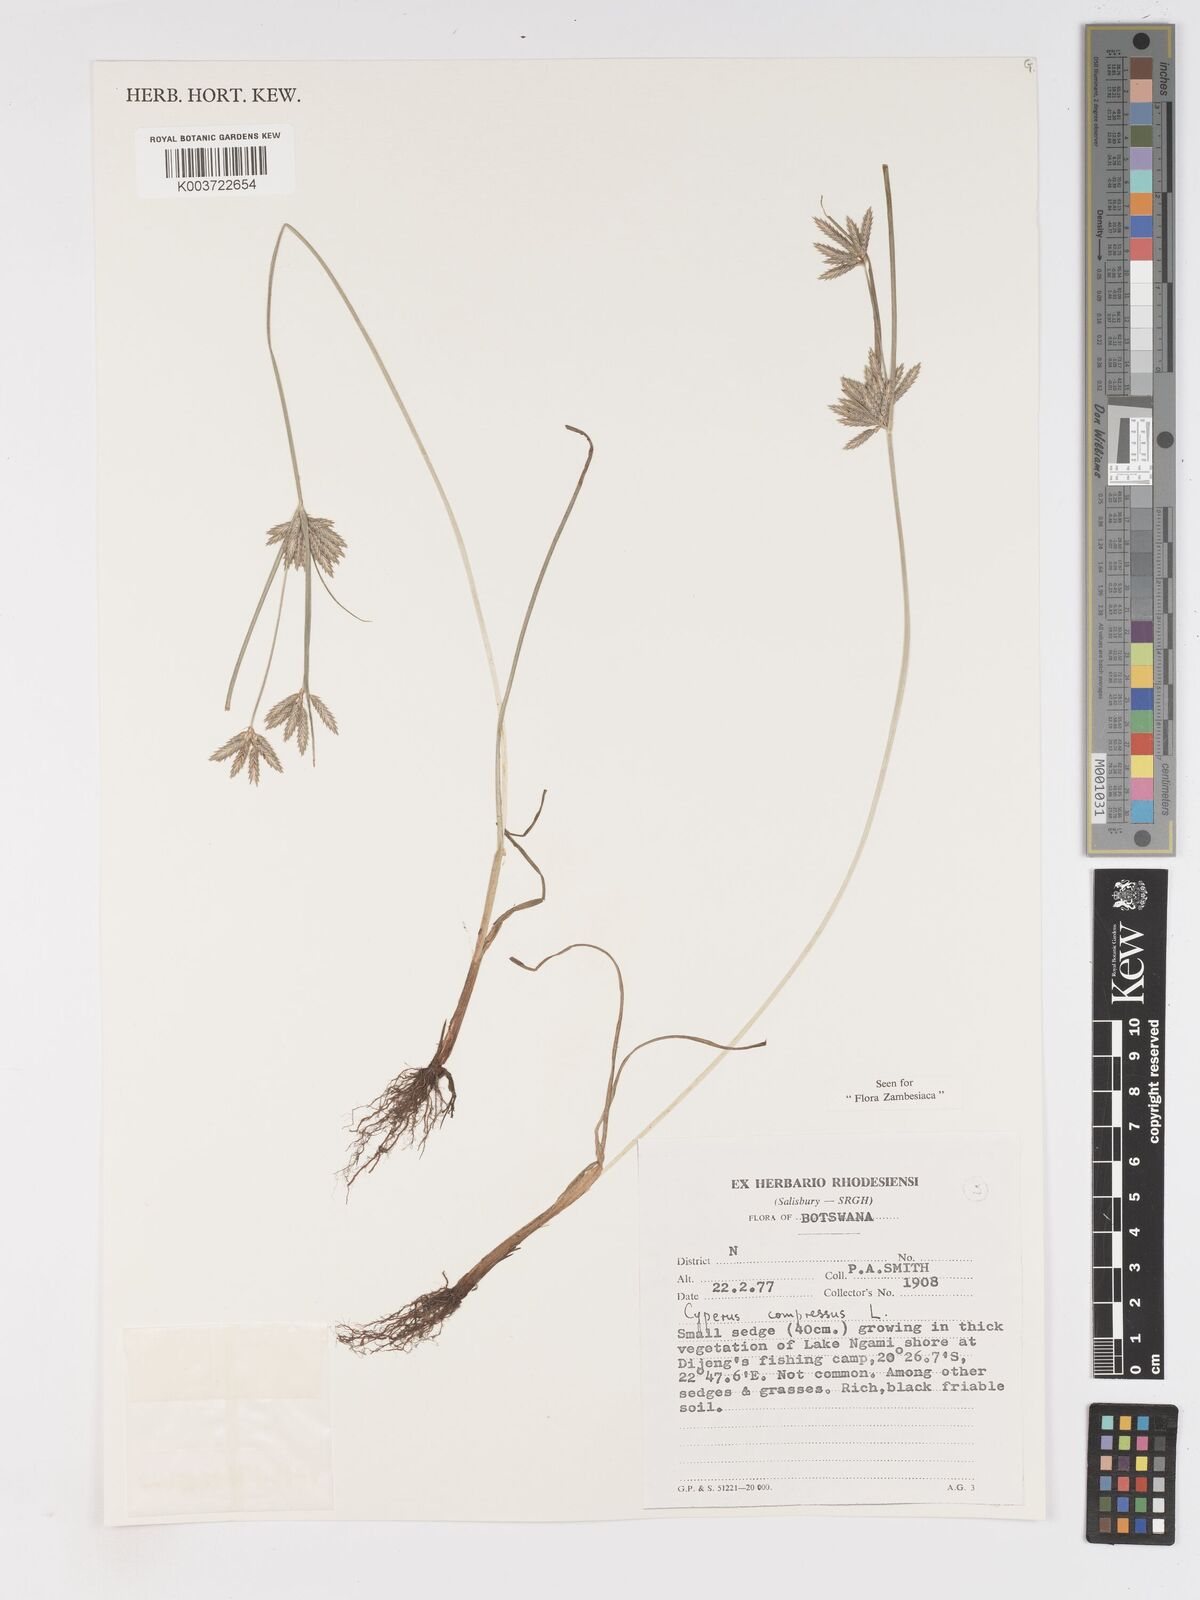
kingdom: Plantae
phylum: Tracheophyta
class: Liliopsida
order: Poales
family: Cyperaceae
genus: Cyperus
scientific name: Cyperus compressus
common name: Poorland flatsedge
